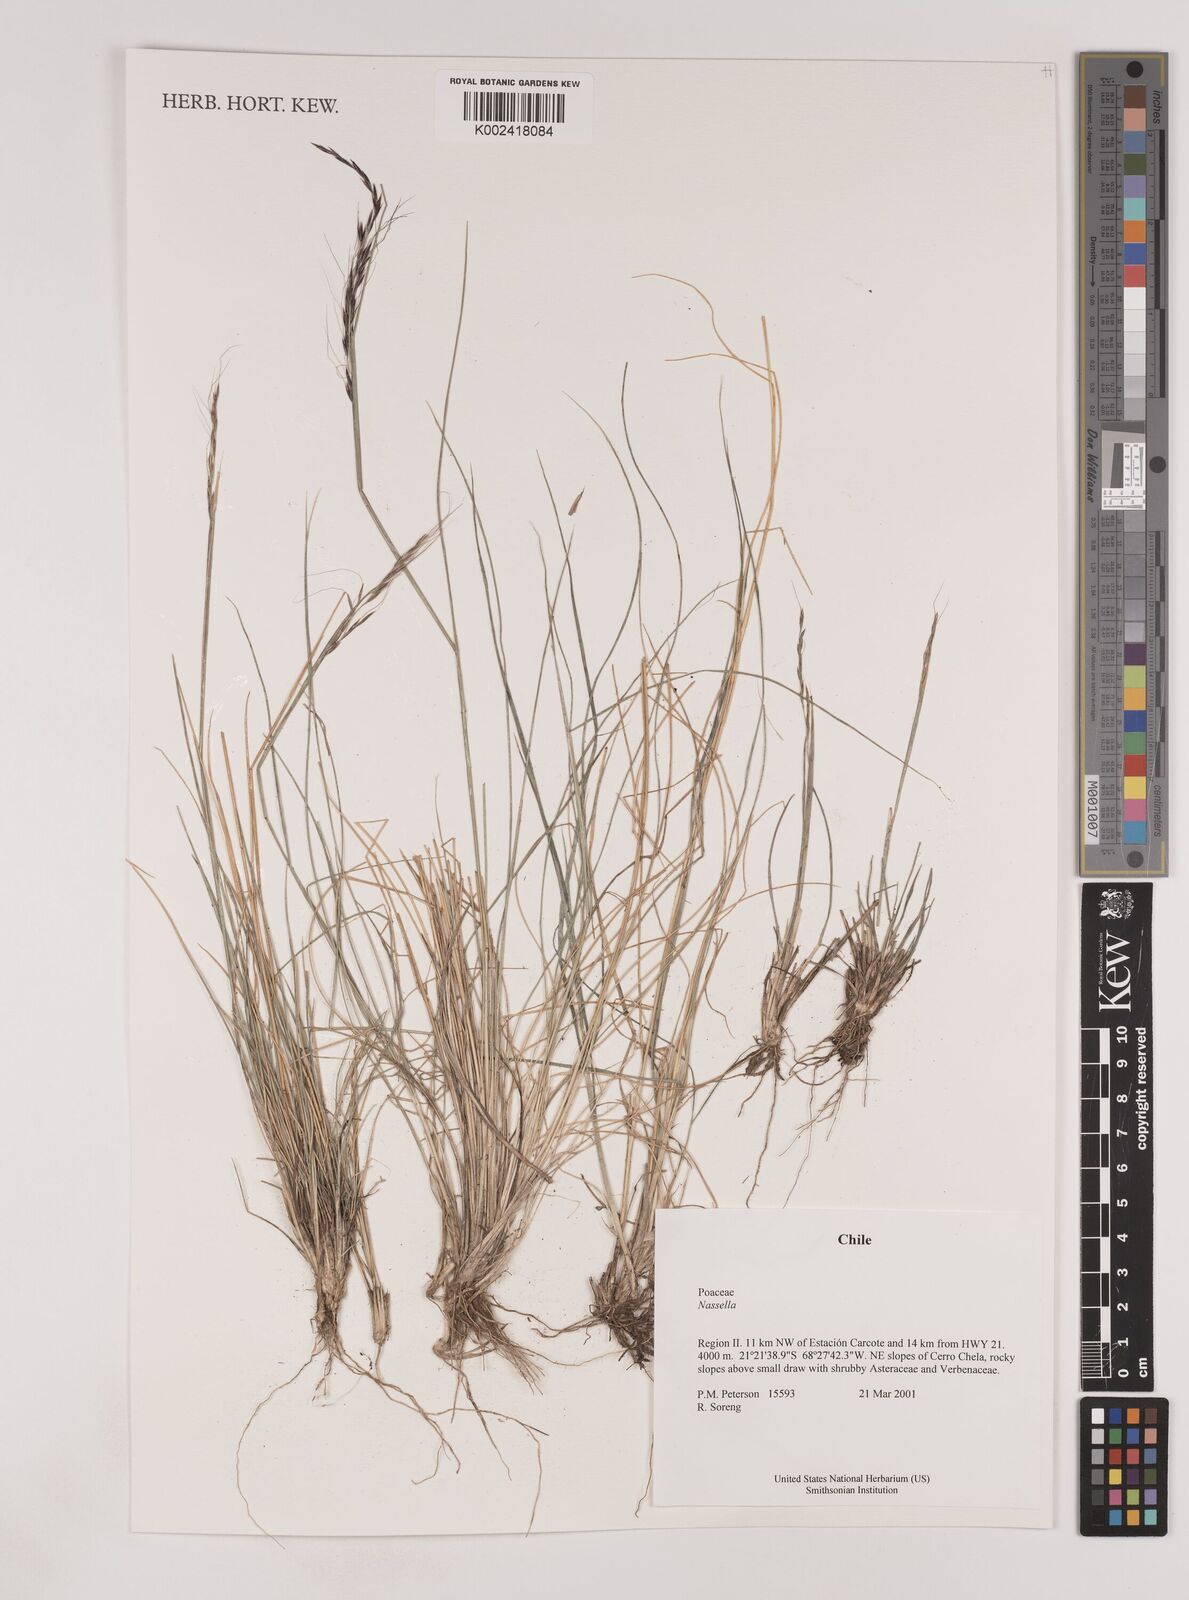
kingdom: Plantae
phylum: Tracheophyta
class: Liliopsida
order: Poales
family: Poaceae
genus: Nassella
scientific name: Nassella
